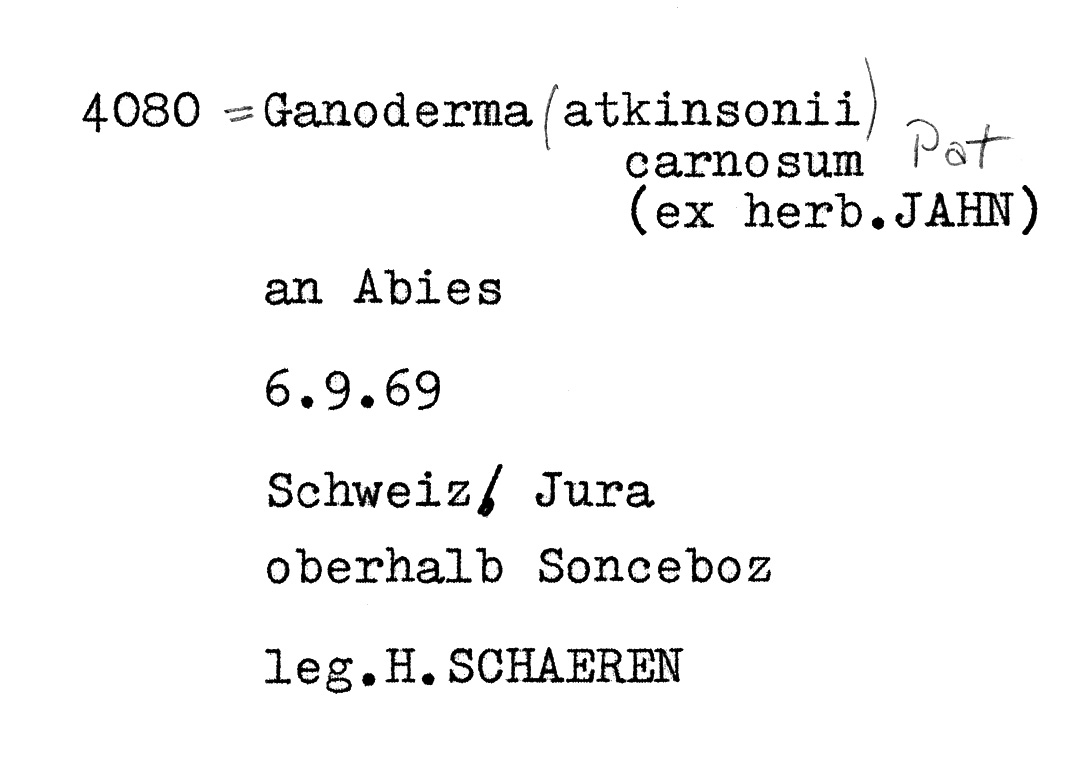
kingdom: Fungi
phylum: Basidiomycota
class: Agaricomycetes
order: Polyporales
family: Polyporaceae
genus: Ganoderma
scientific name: Ganoderma carnosum
